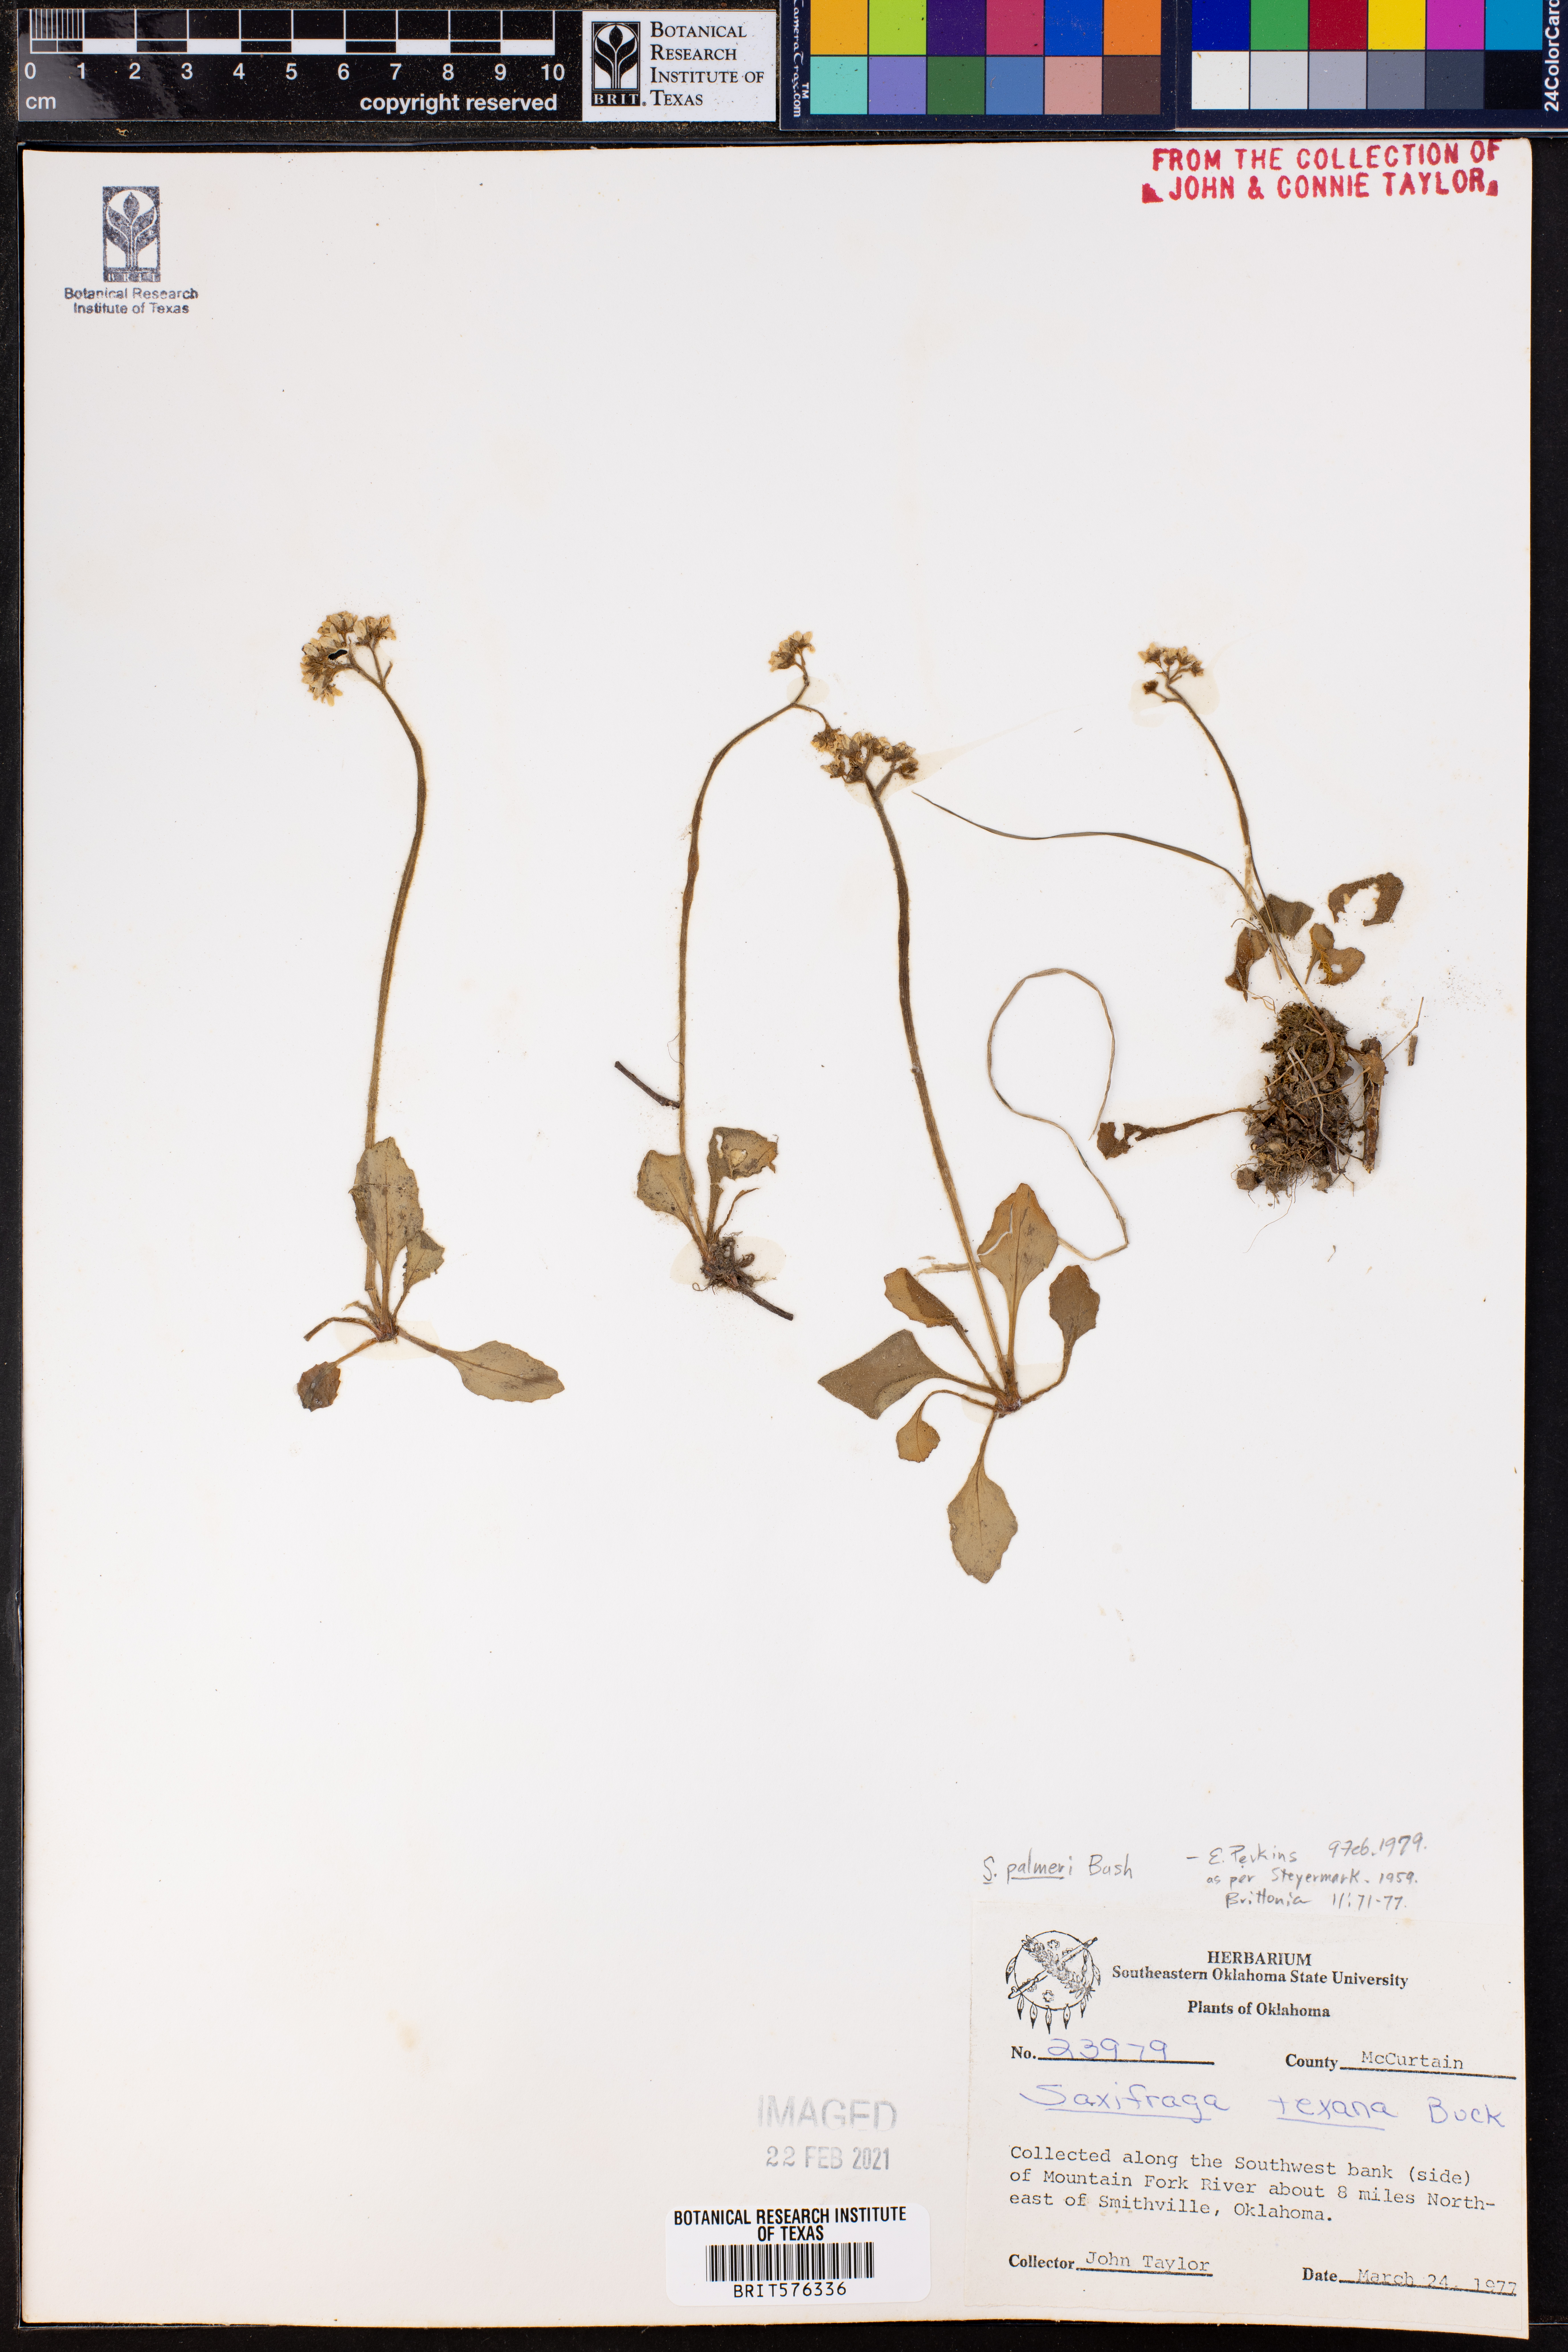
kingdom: Plantae
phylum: Tracheophyta
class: Magnoliopsida
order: Saxifragales
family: Saxifragaceae
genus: Micranthes
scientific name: Micranthes palmeri
